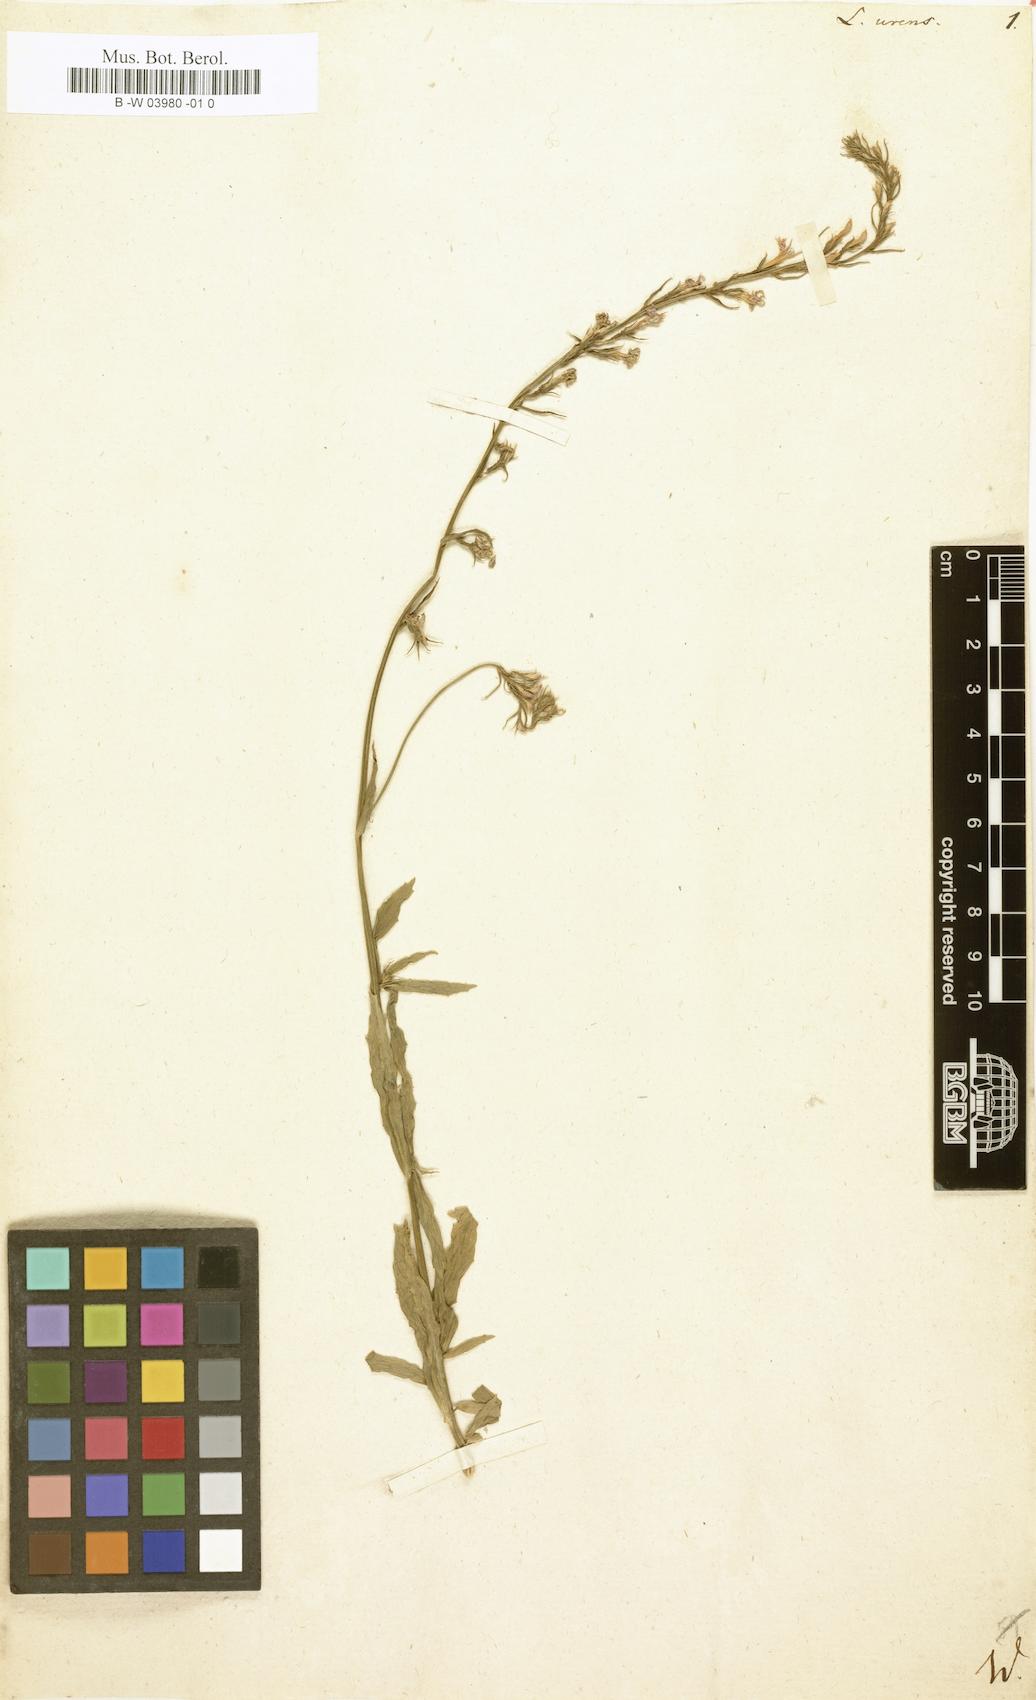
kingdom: Plantae
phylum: Tracheophyta
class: Magnoliopsida
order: Asterales
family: Campanulaceae
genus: Lobelia
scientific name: Lobelia urens
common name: Heath lobelia
